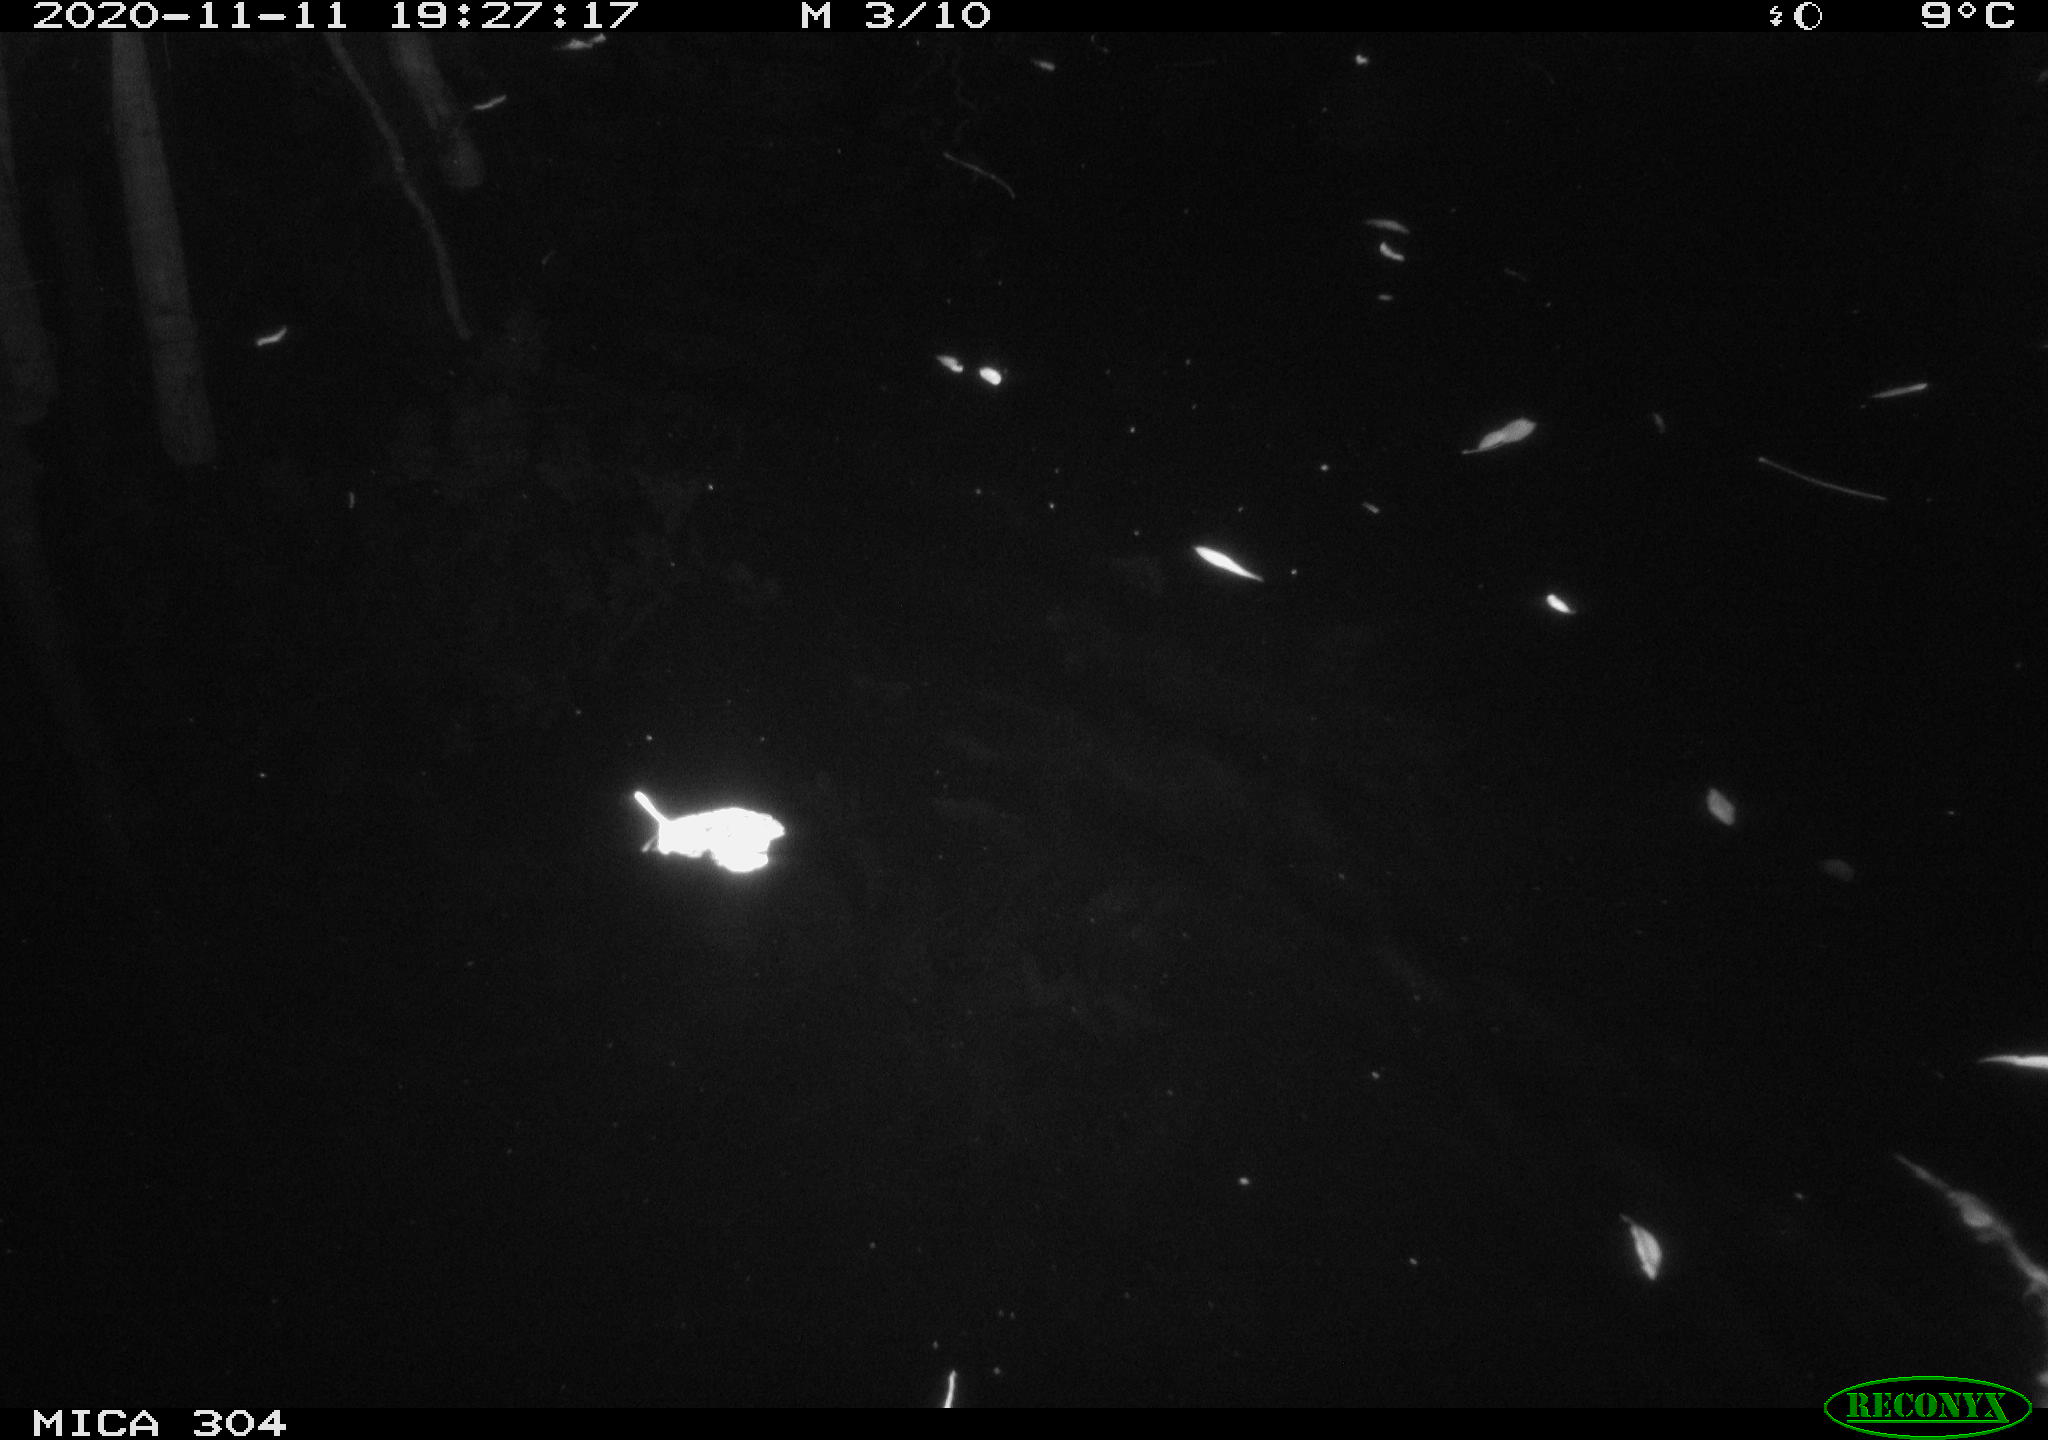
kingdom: Animalia
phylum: Chordata
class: Mammalia
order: Rodentia
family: Muridae
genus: Rattus
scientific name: Rattus norvegicus
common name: Brown rat
